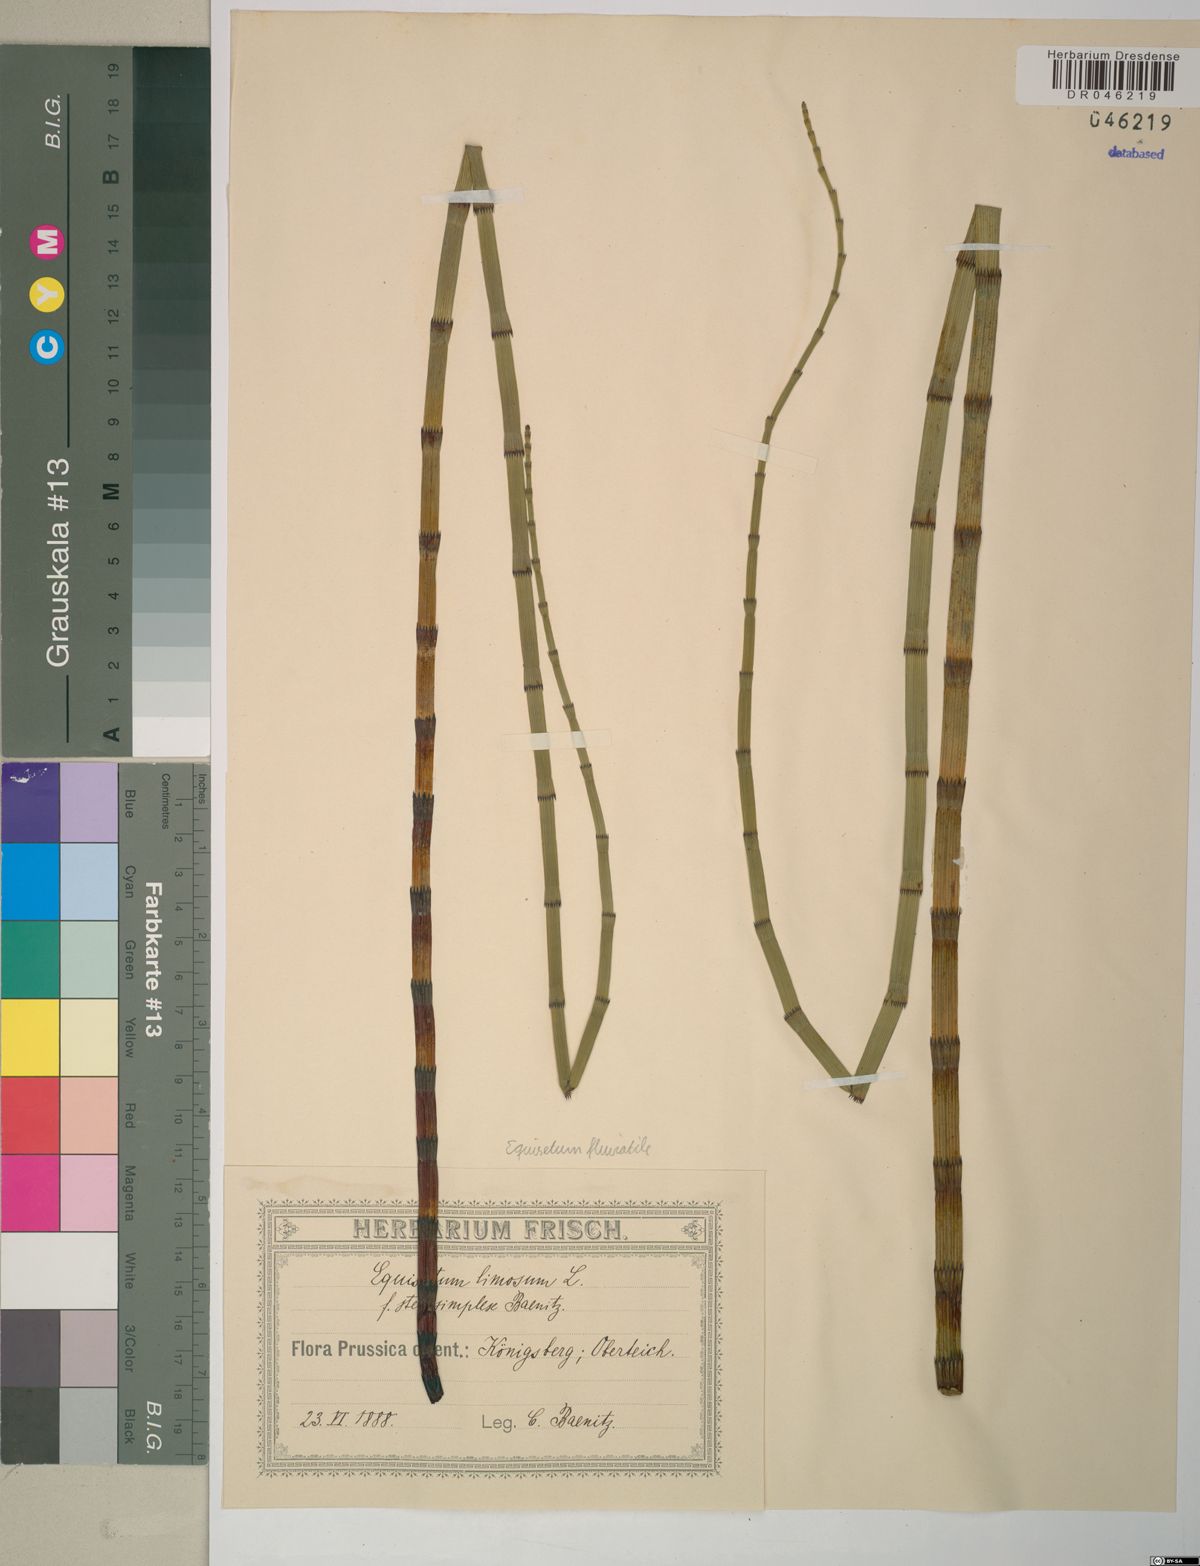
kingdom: Plantae
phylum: Tracheophyta
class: Polypodiopsida
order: Equisetales
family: Equisetaceae
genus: Equisetum
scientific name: Equisetum fluviatile
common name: Water horsetail
